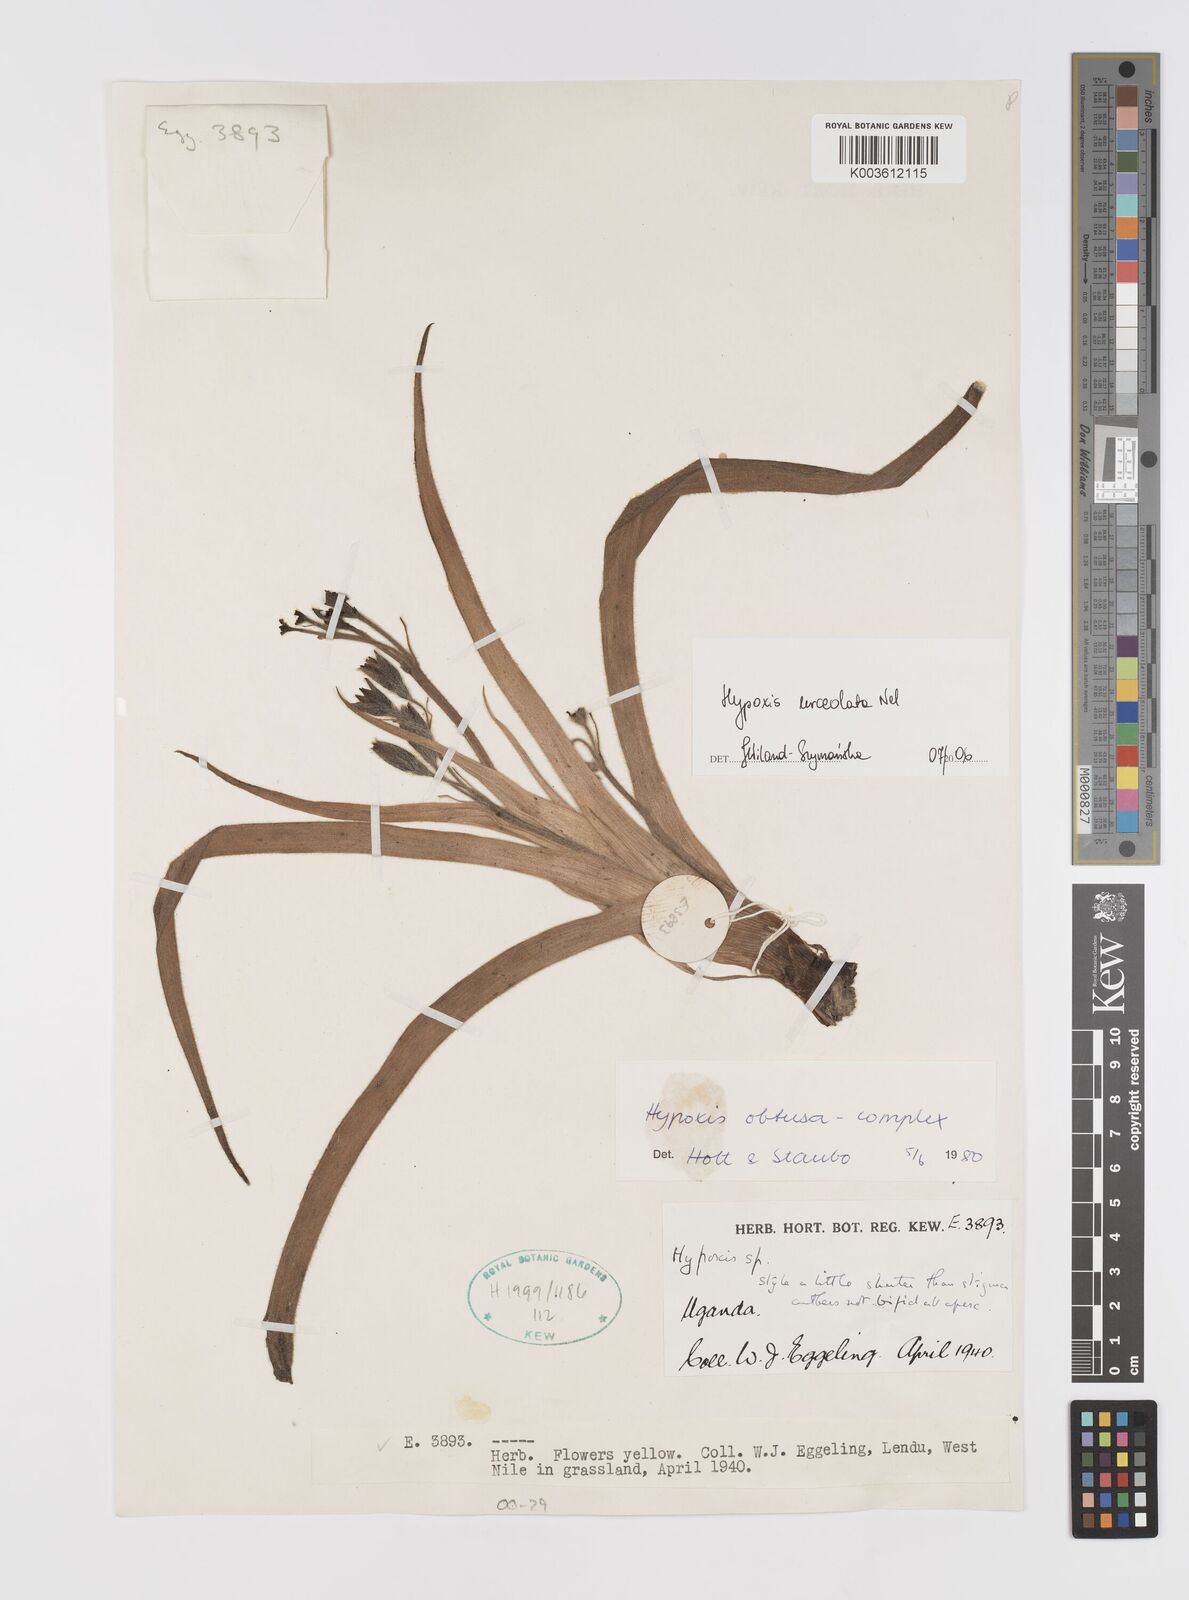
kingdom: Plantae
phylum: Tracheophyta
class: Liliopsida
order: Asparagales
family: Hypoxidaceae
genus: Hypoxis
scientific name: Hypoxis urceolata
